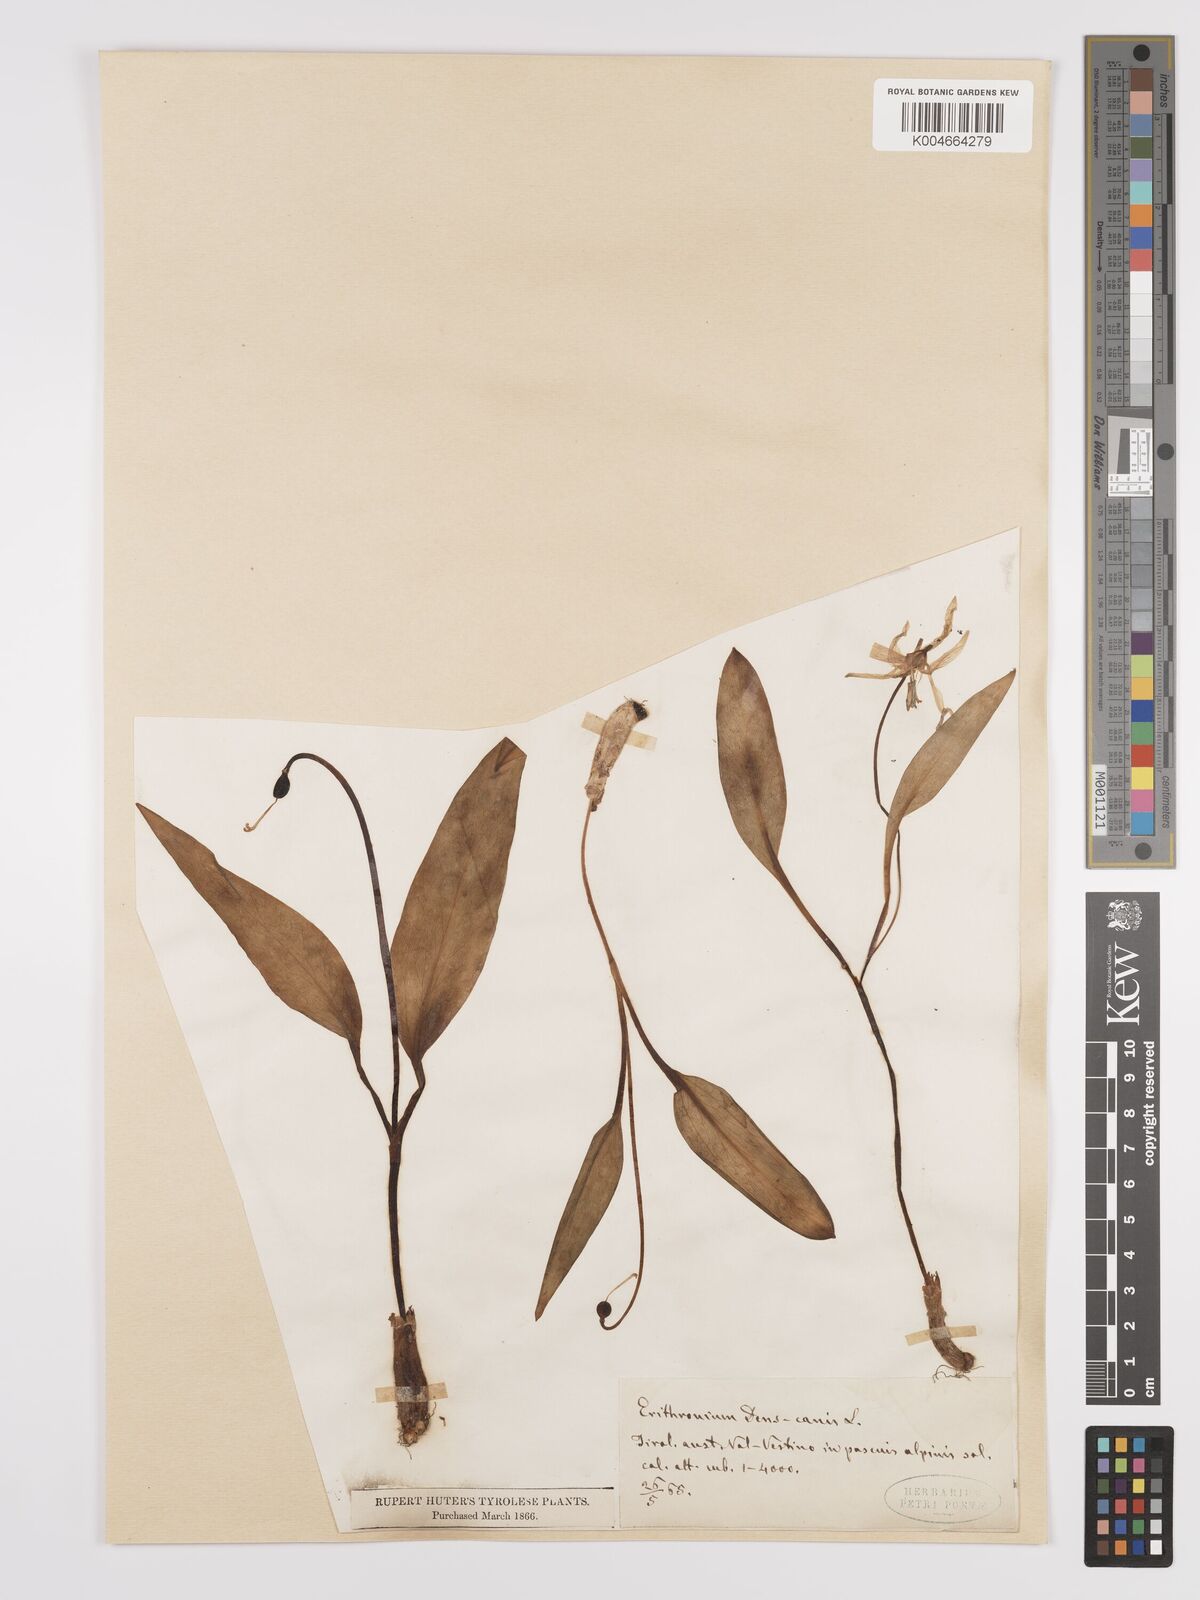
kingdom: Plantae
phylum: Tracheophyta
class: Liliopsida
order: Liliales
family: Liliaceae
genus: Erythronium
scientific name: Erythronium dens-canis
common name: Dog's-tooth-violet
